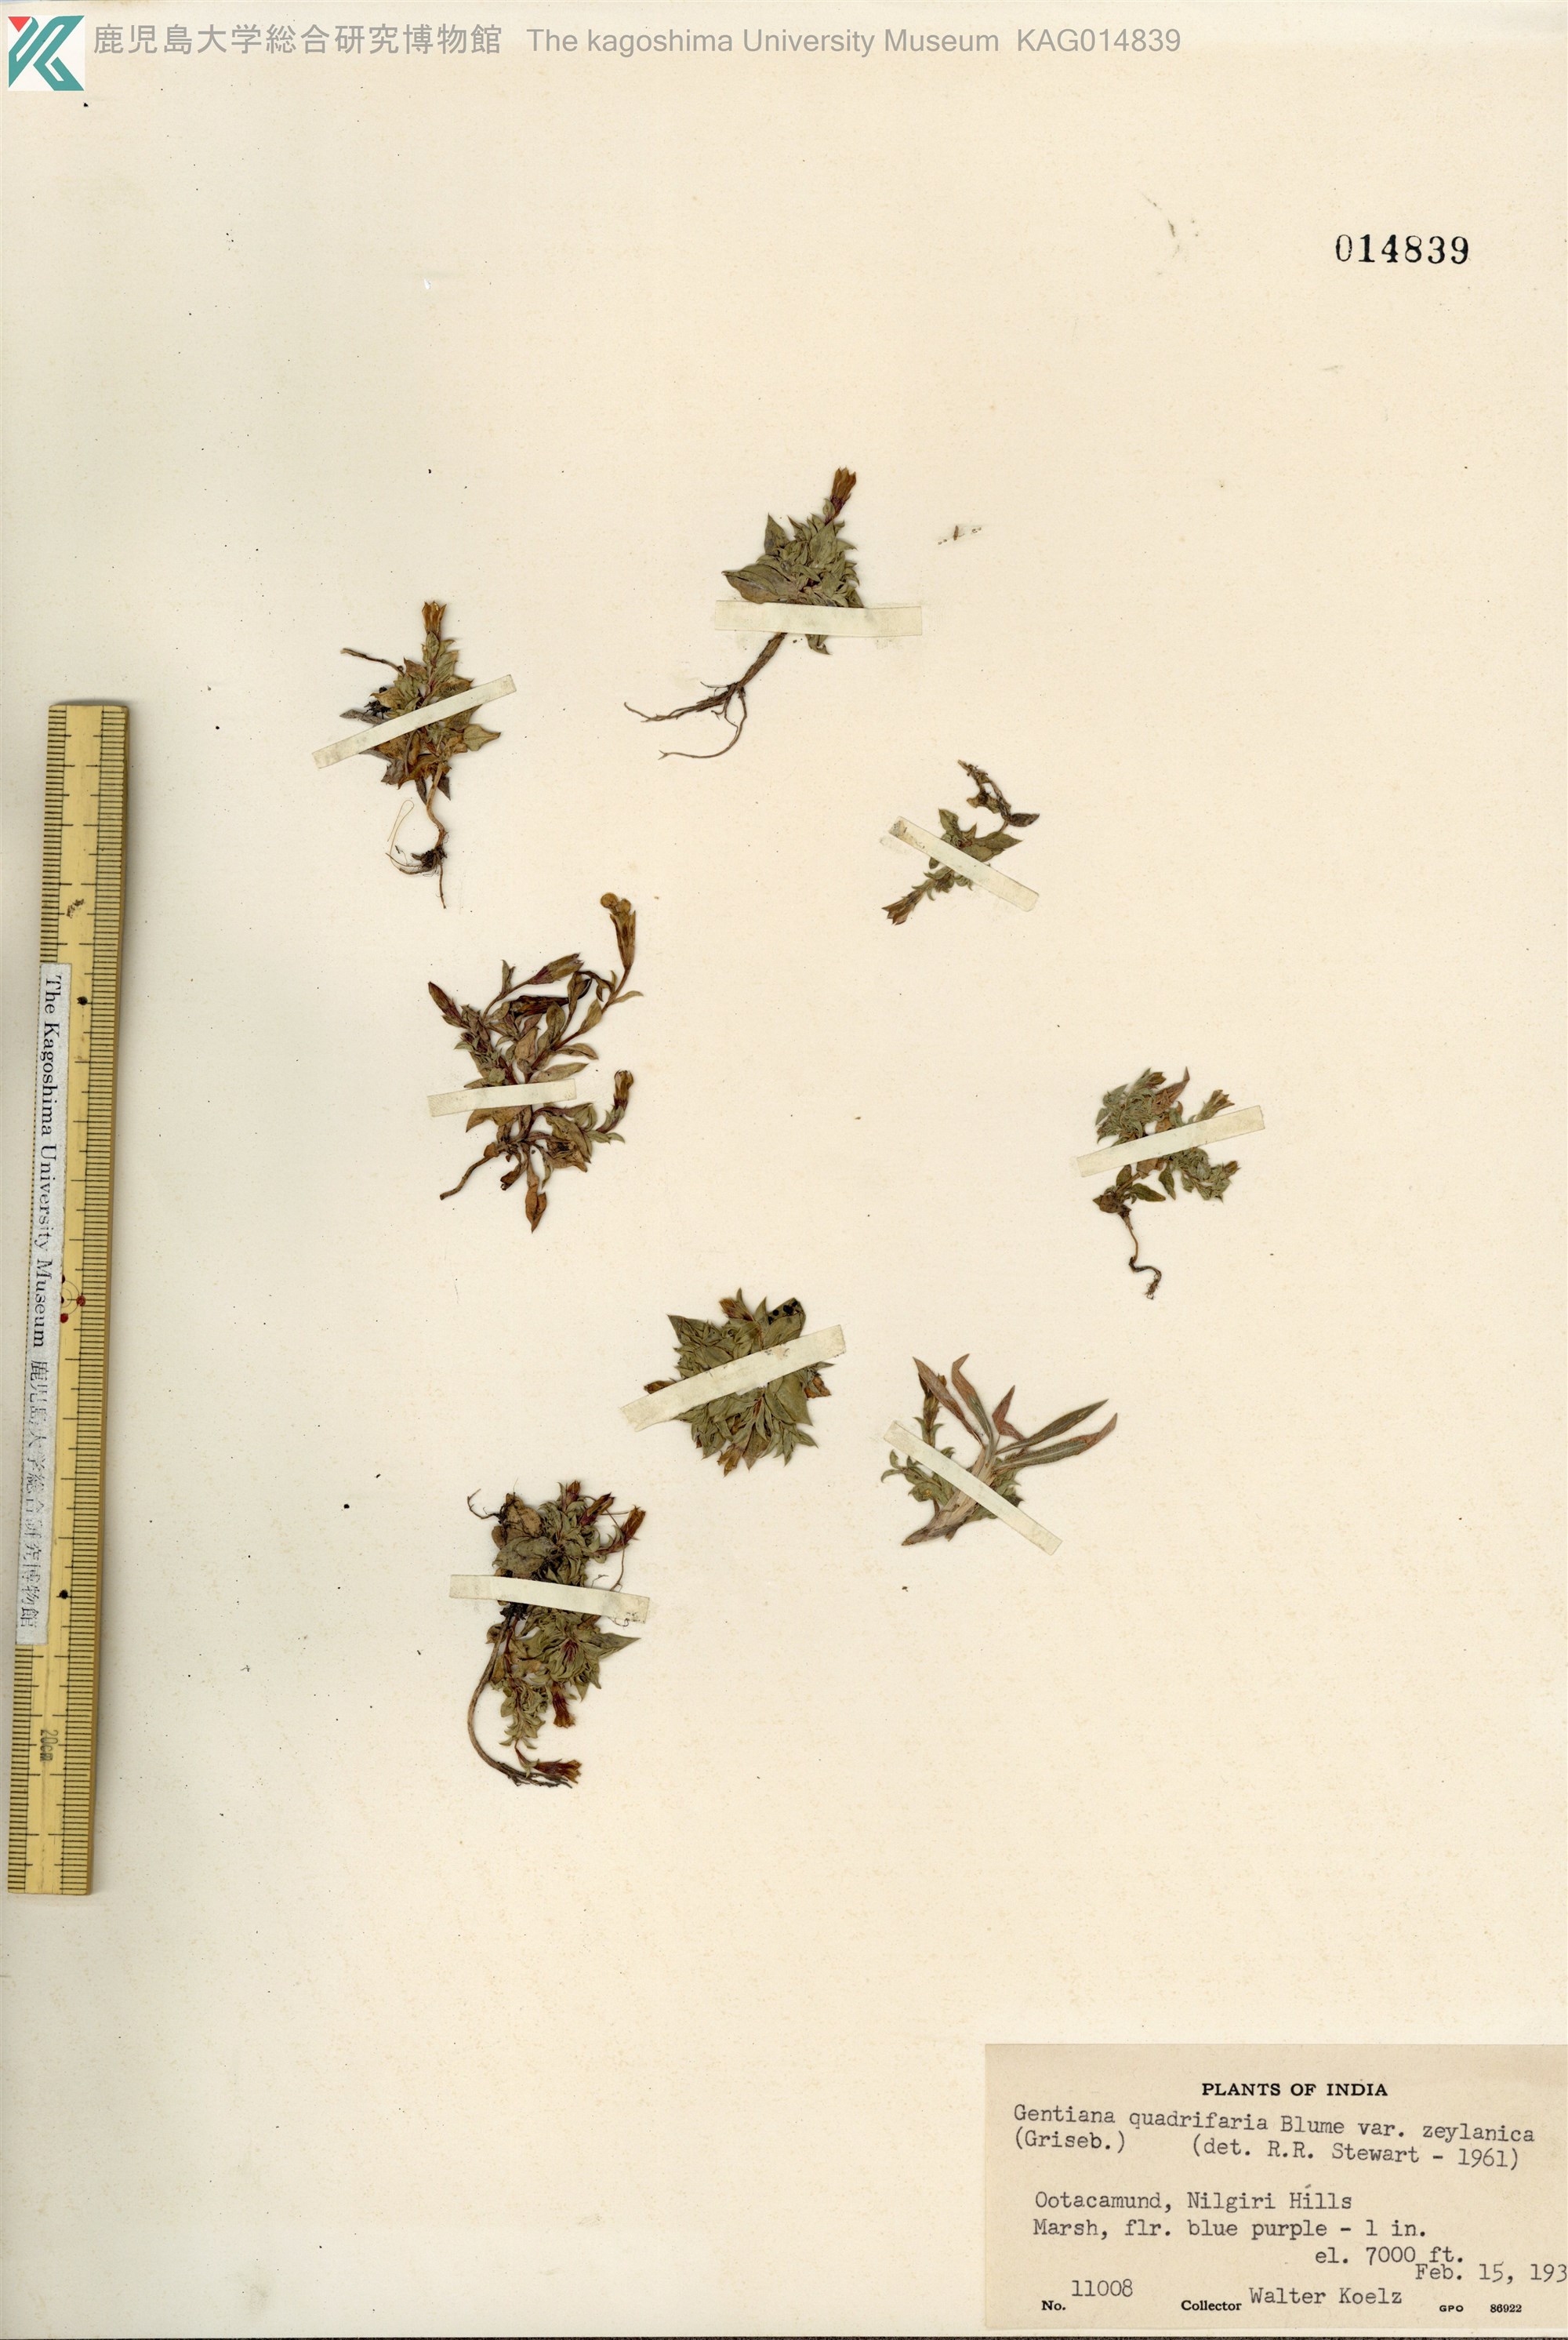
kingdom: Plantae
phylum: Tracheophyta
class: Magnoliopsida
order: Gentianales
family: Gentianaceae
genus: Gentiana
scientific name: Gentiana quadrifaria
